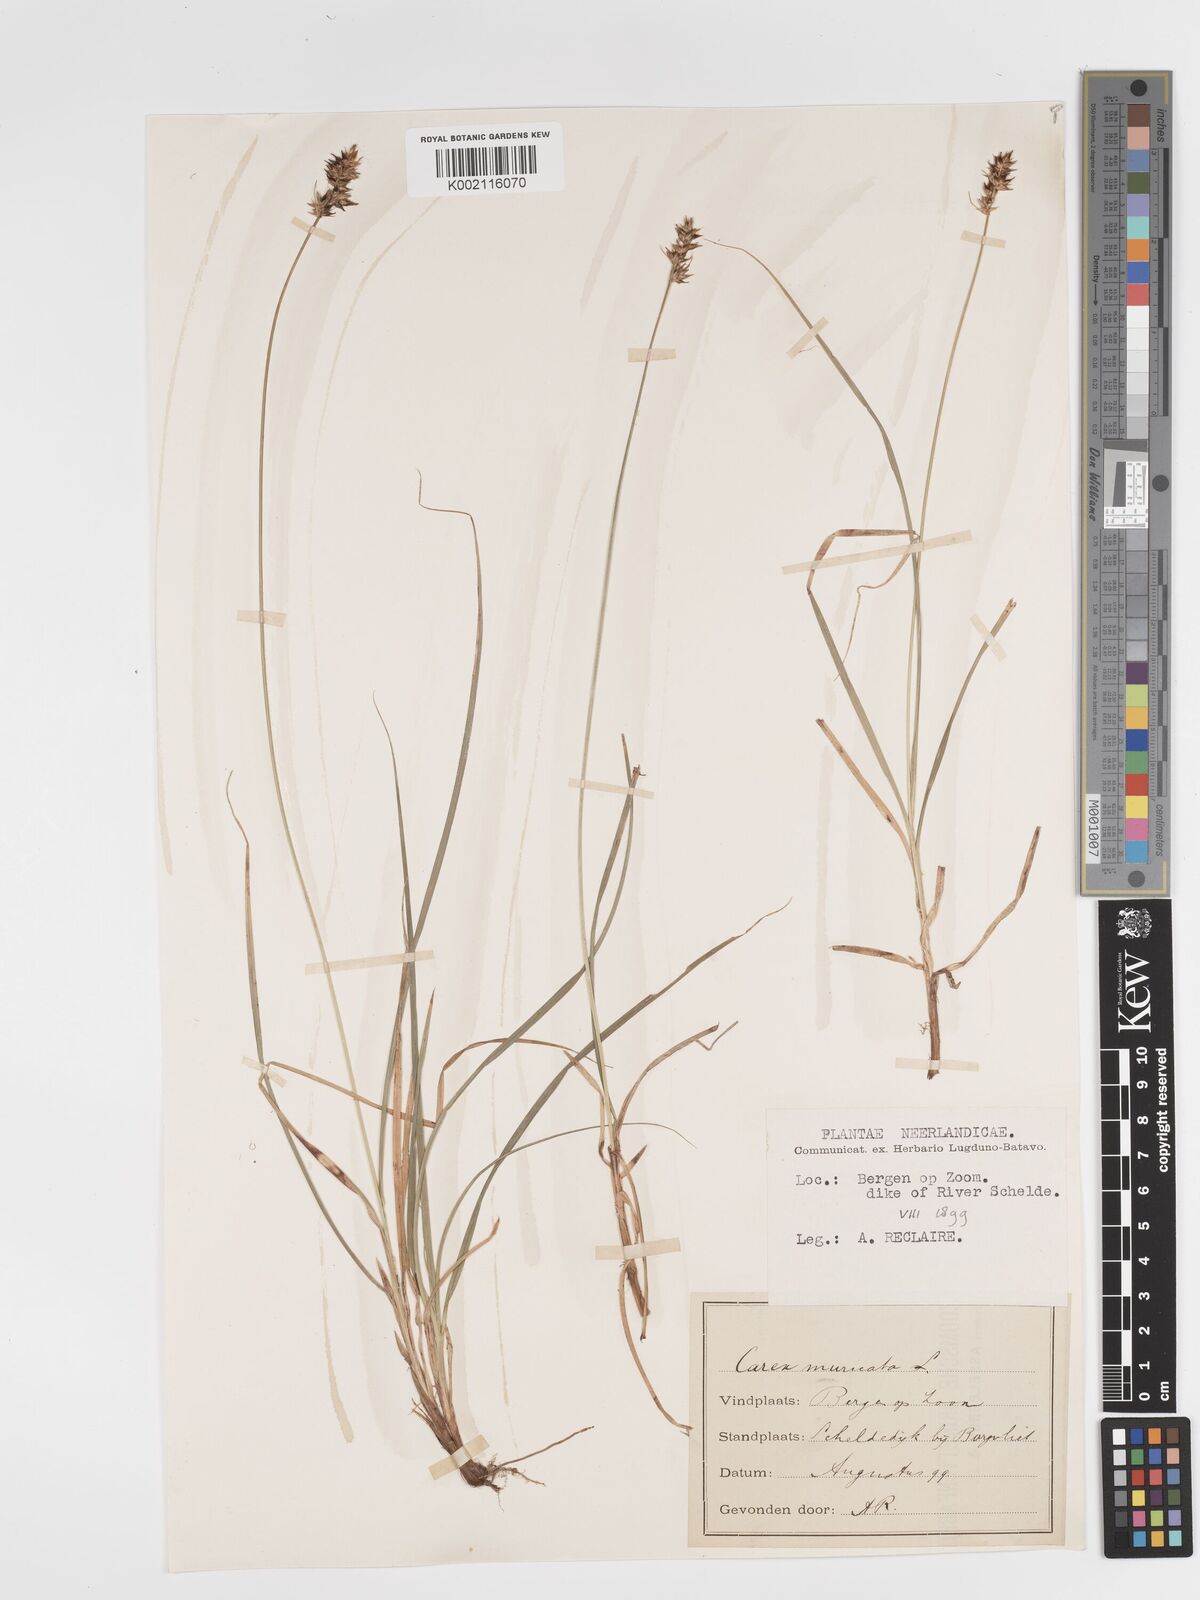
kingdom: Plantae
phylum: Tracheophyta
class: Liliopsida
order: Poales
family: Cyperaceae
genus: Carex
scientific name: Carex spicata
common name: Spiked sedge
